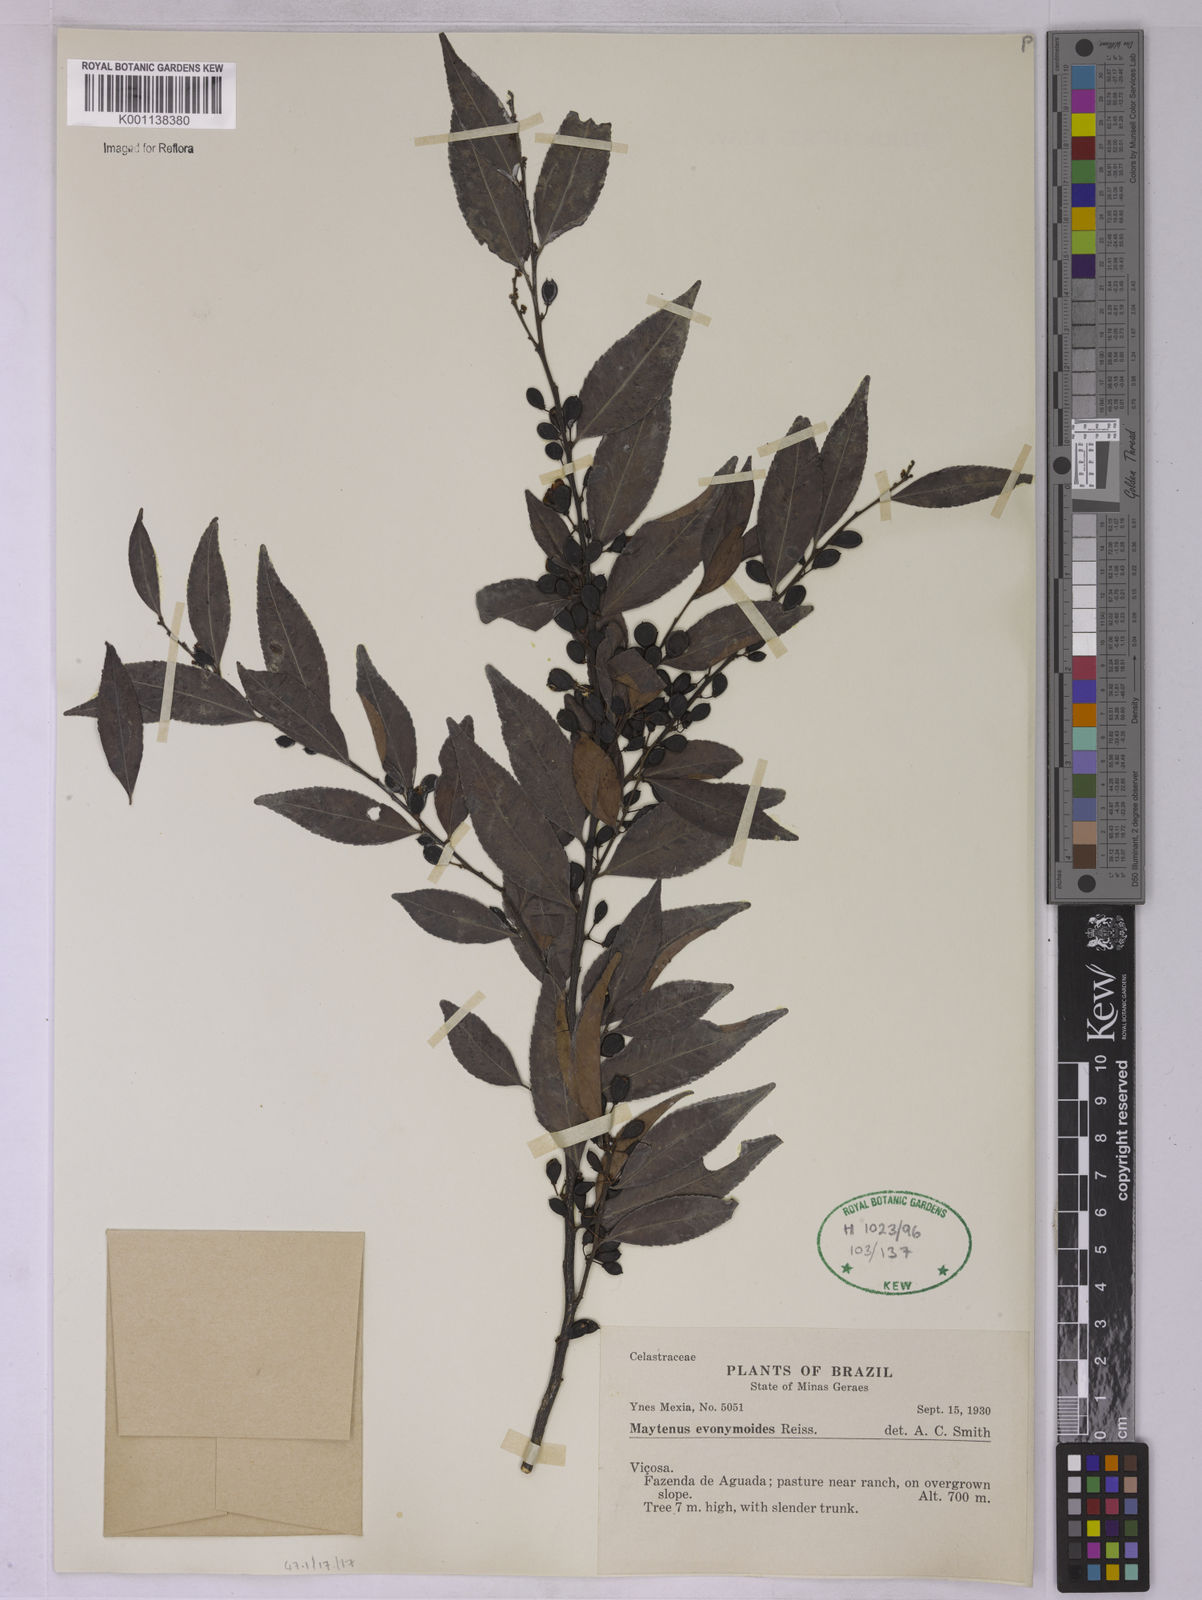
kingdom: Plantae
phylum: Tracheophyta
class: Magnoliopsida
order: Celastrales
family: Celastraceae
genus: Monteverdia
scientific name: Monteverdia evonymoides
